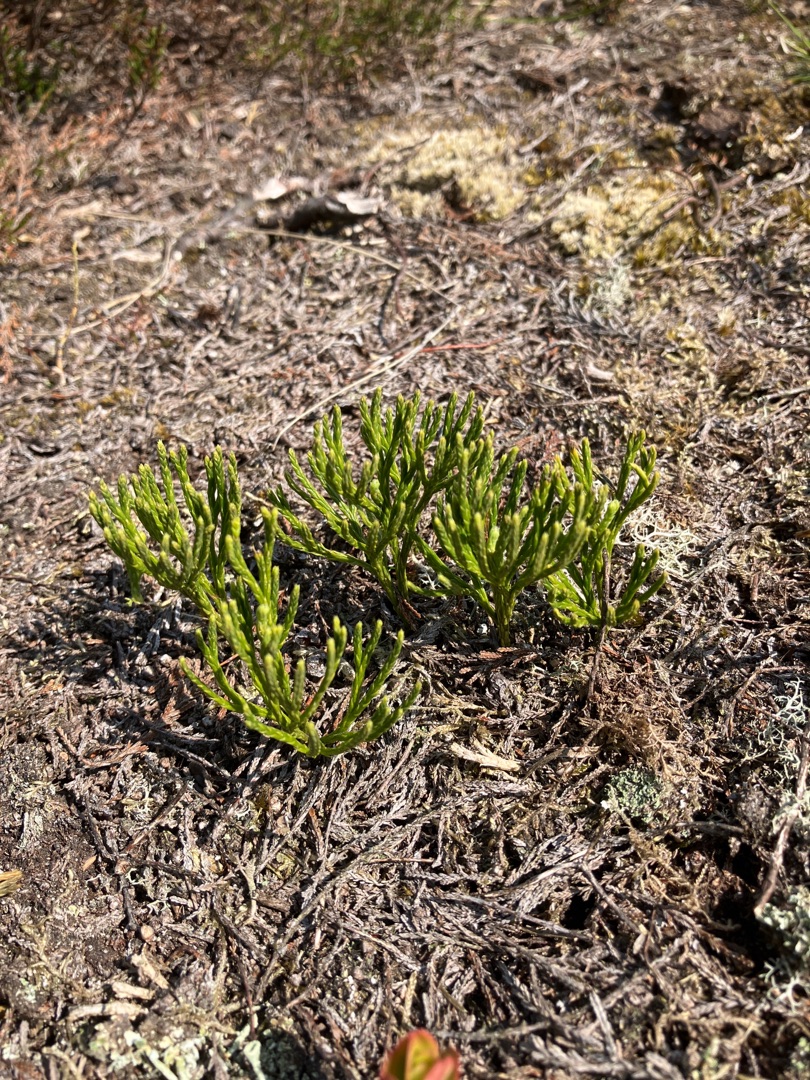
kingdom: Plantae
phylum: Tracheophyta
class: Lycopodiopsida
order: Lycopodiales
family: Lycopodiaceae
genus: Diphasiastrum
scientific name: Diphasiastrum tristachyum
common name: Cypres-ulvefod
